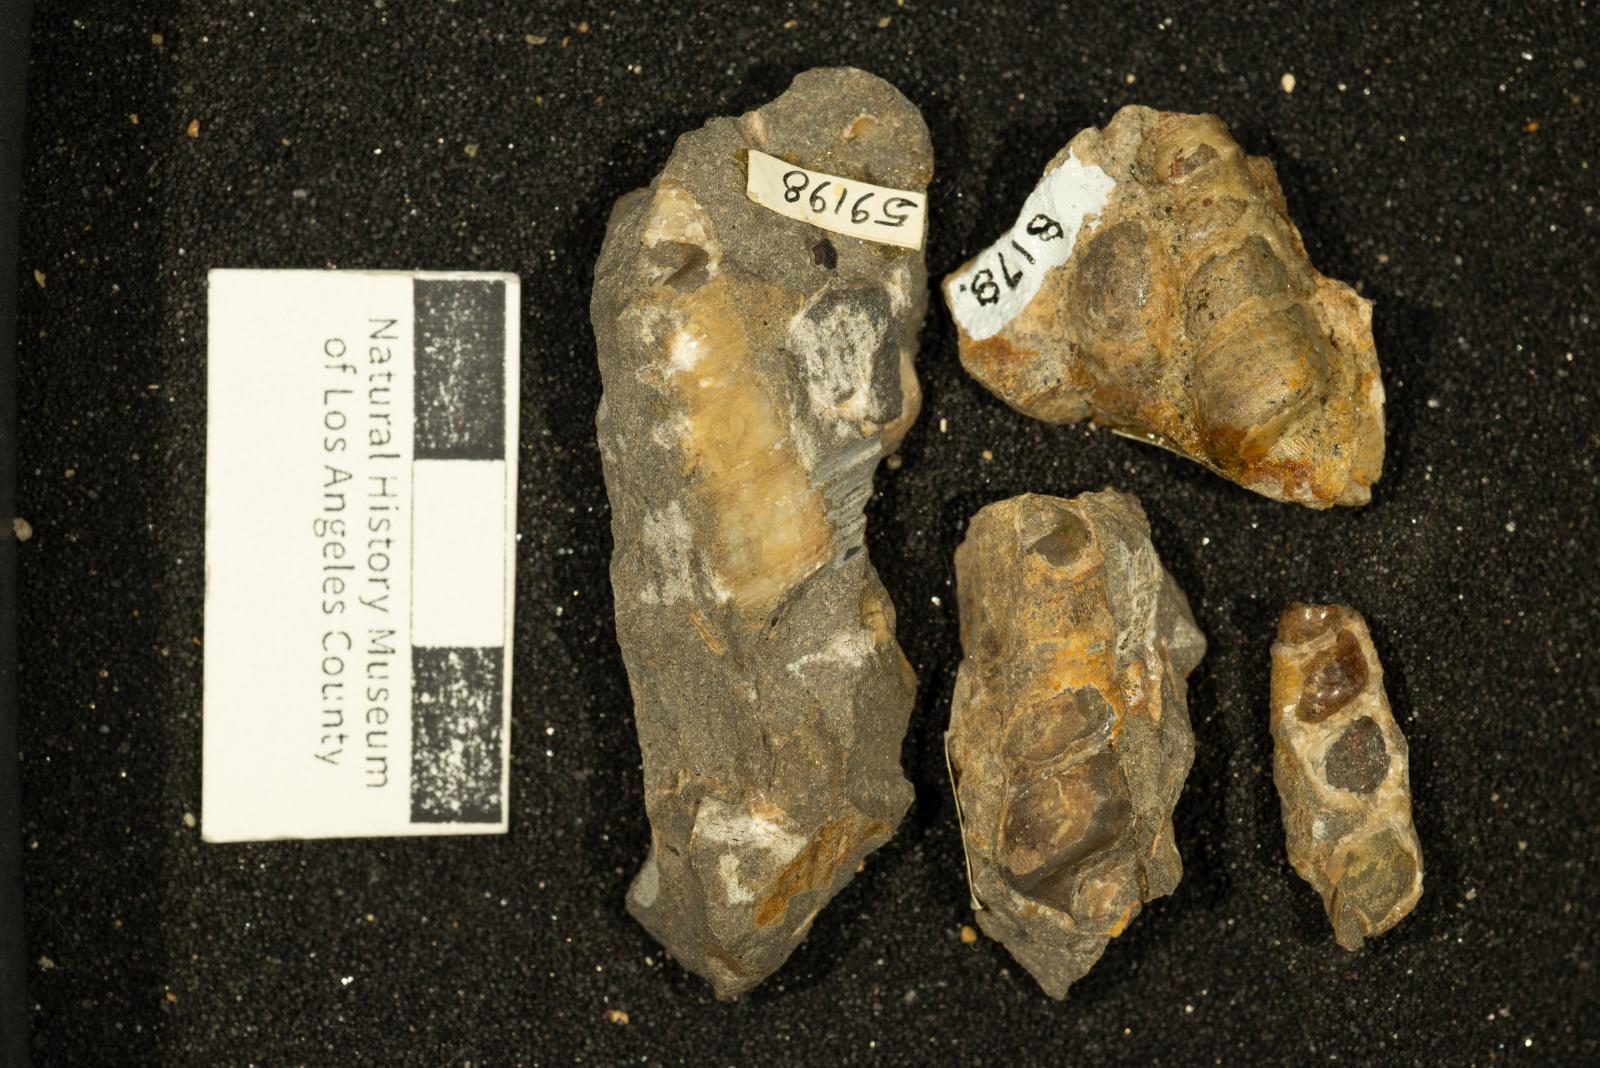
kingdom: Animalia
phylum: Mollusca
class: Gastropoda
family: Turritellidae
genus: Turritella
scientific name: Turritella iota
